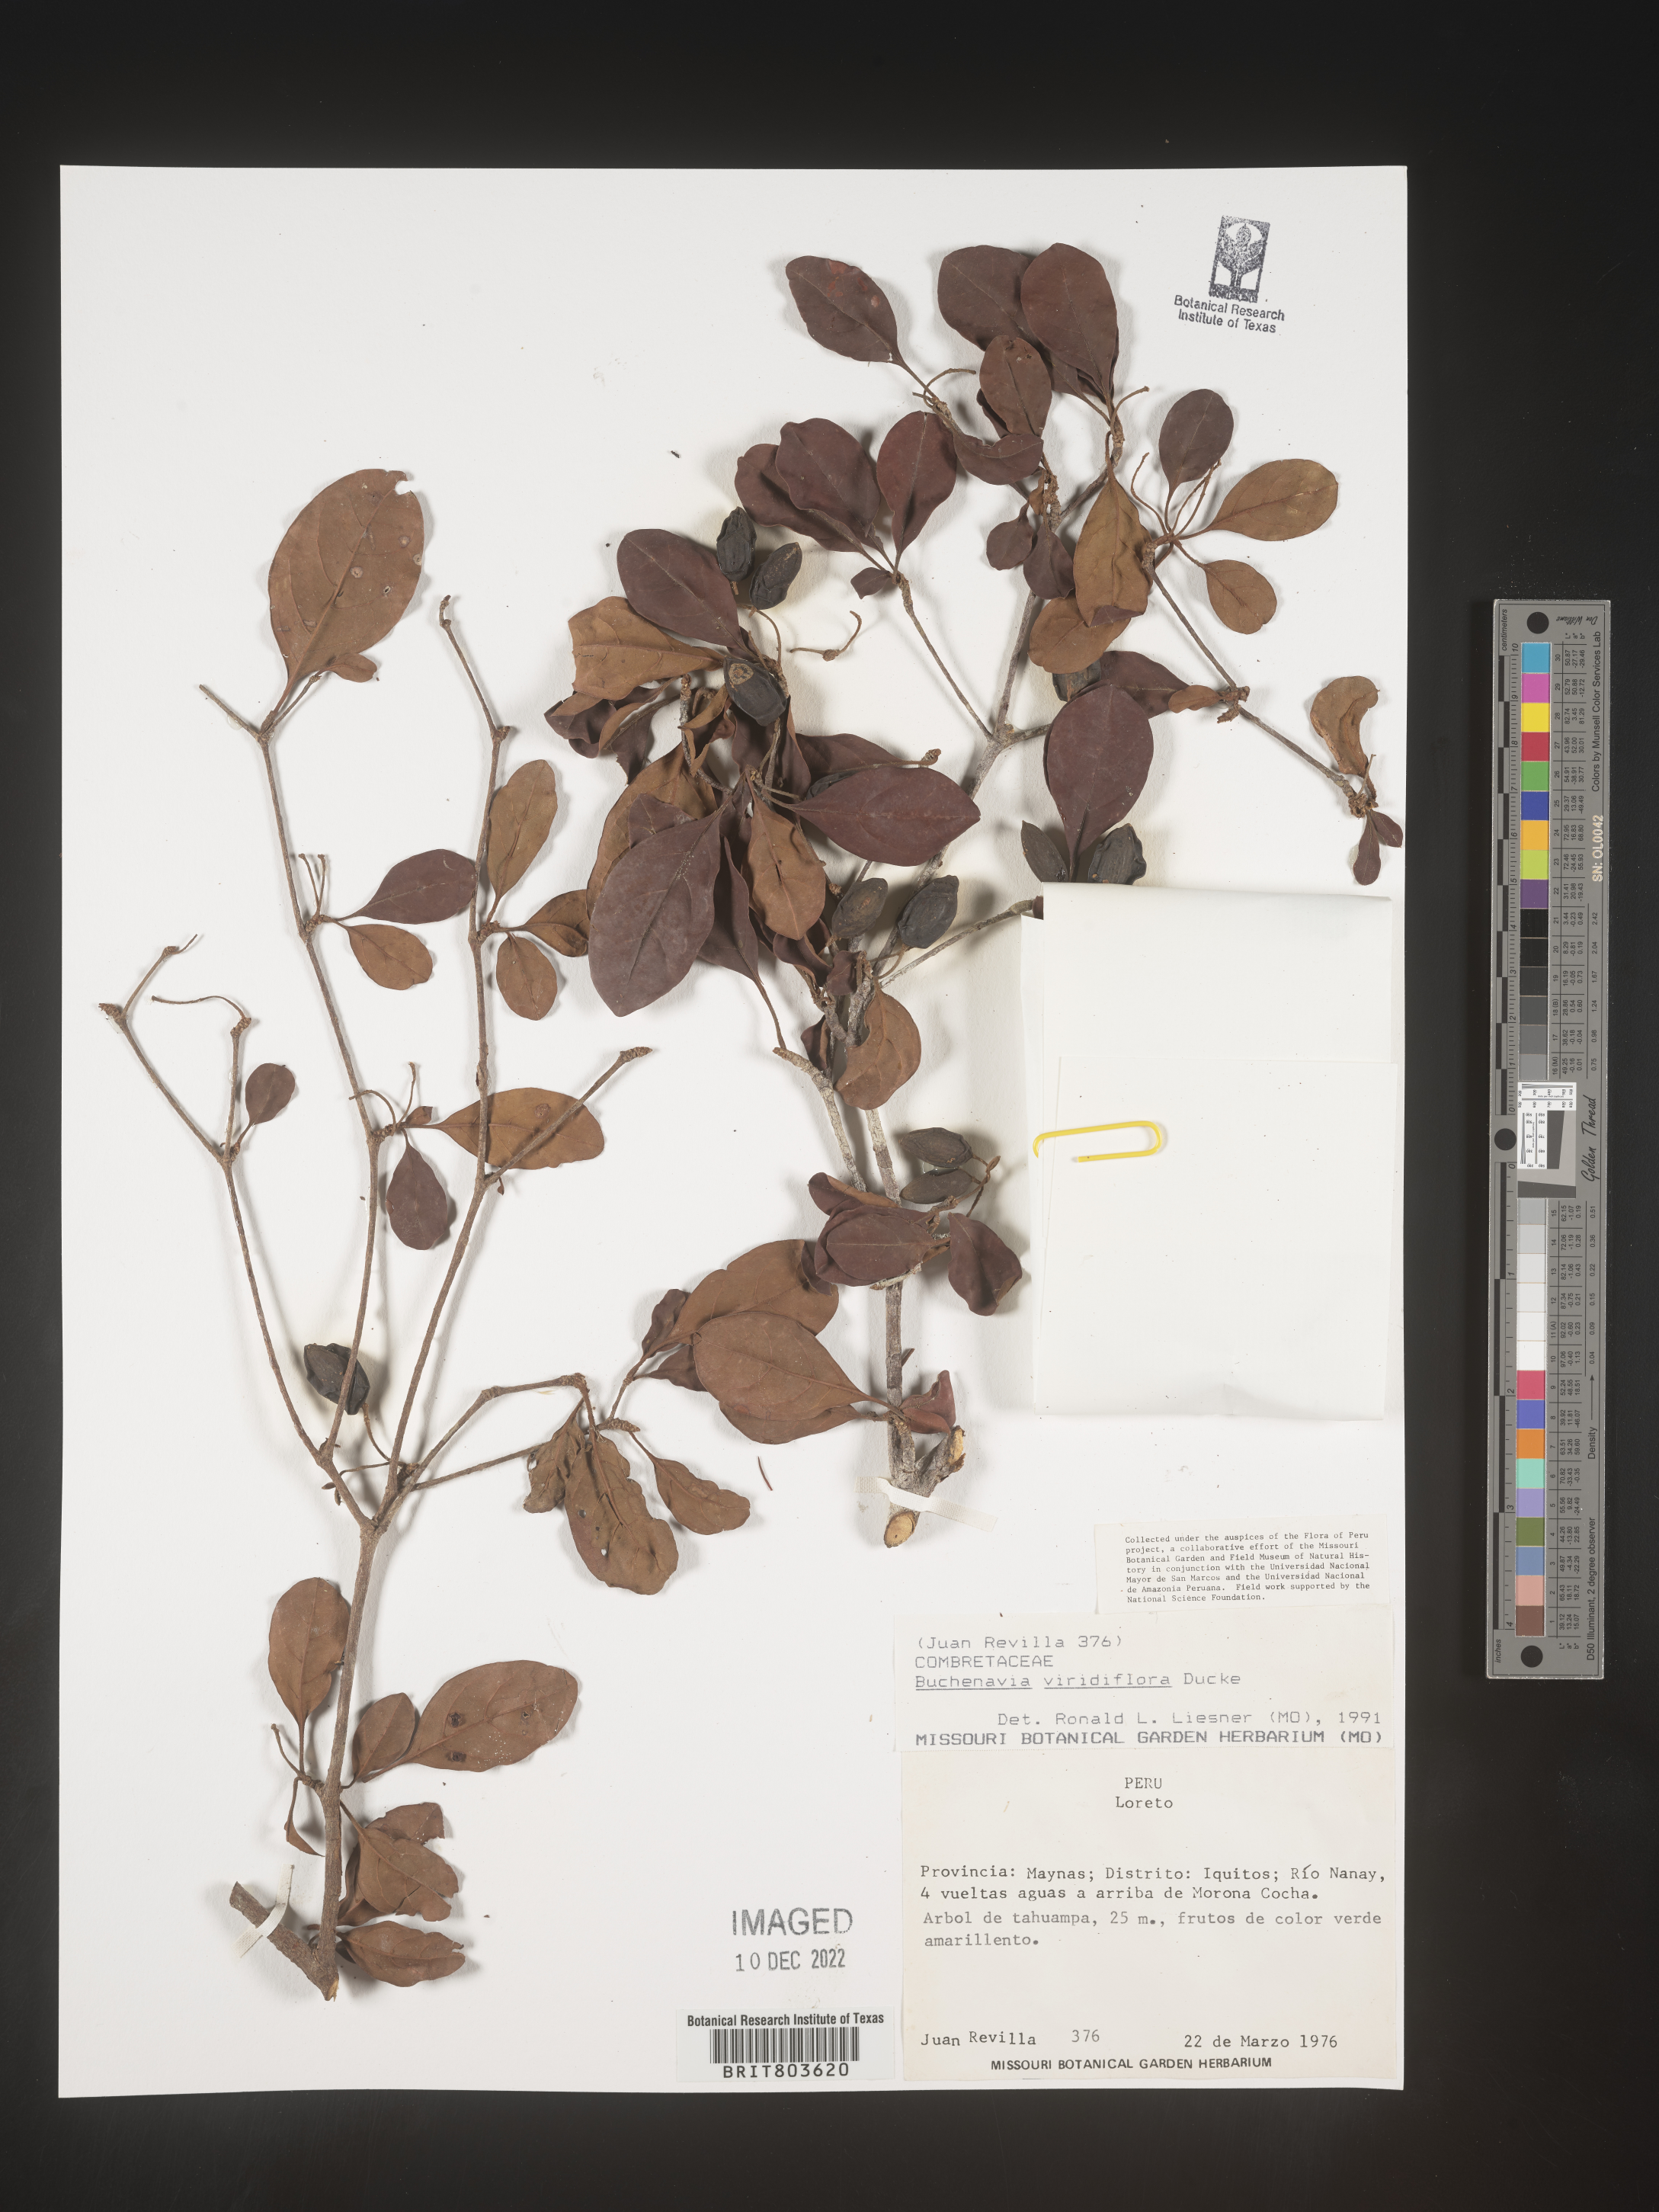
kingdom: Plantae
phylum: Tracheophyta
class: Magnoliopsida
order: Myrtales
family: Combretaceae
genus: Terminalia
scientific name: Terminalia
